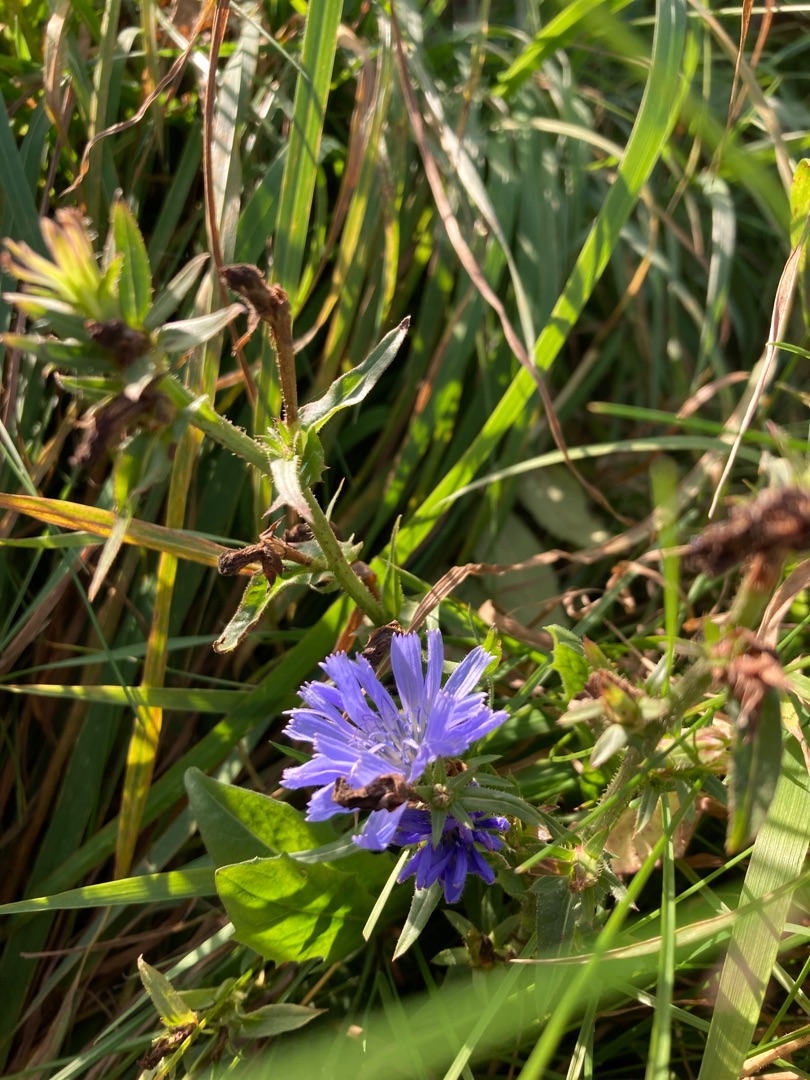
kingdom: Plantae
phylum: Tracheophyta
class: Magnoliopsida
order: Asterales
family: Asteraceae
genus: Cichorium
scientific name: Cichorium intybus
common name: Cikorie
